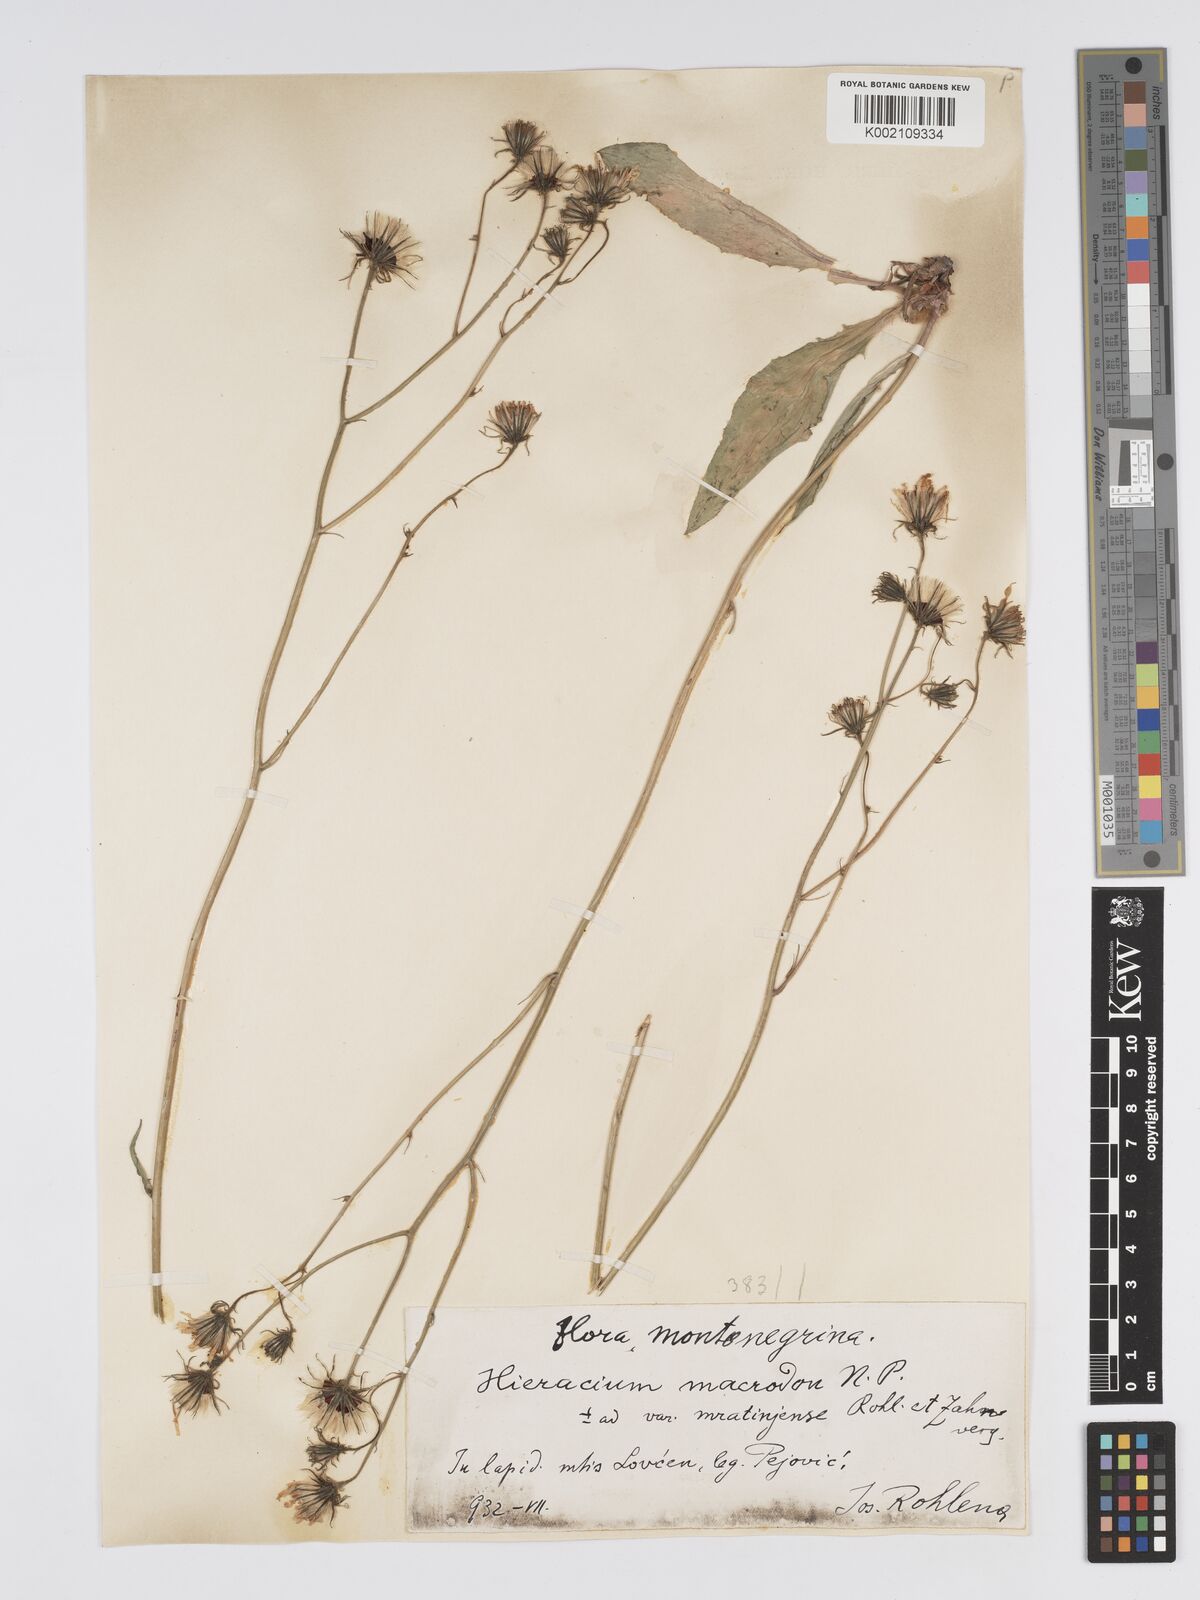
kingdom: Plantae
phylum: Tracheophyta
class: Magnoliopsida
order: Asterales
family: Asteraceae
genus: Hieracium
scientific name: Hieracium macrodon
